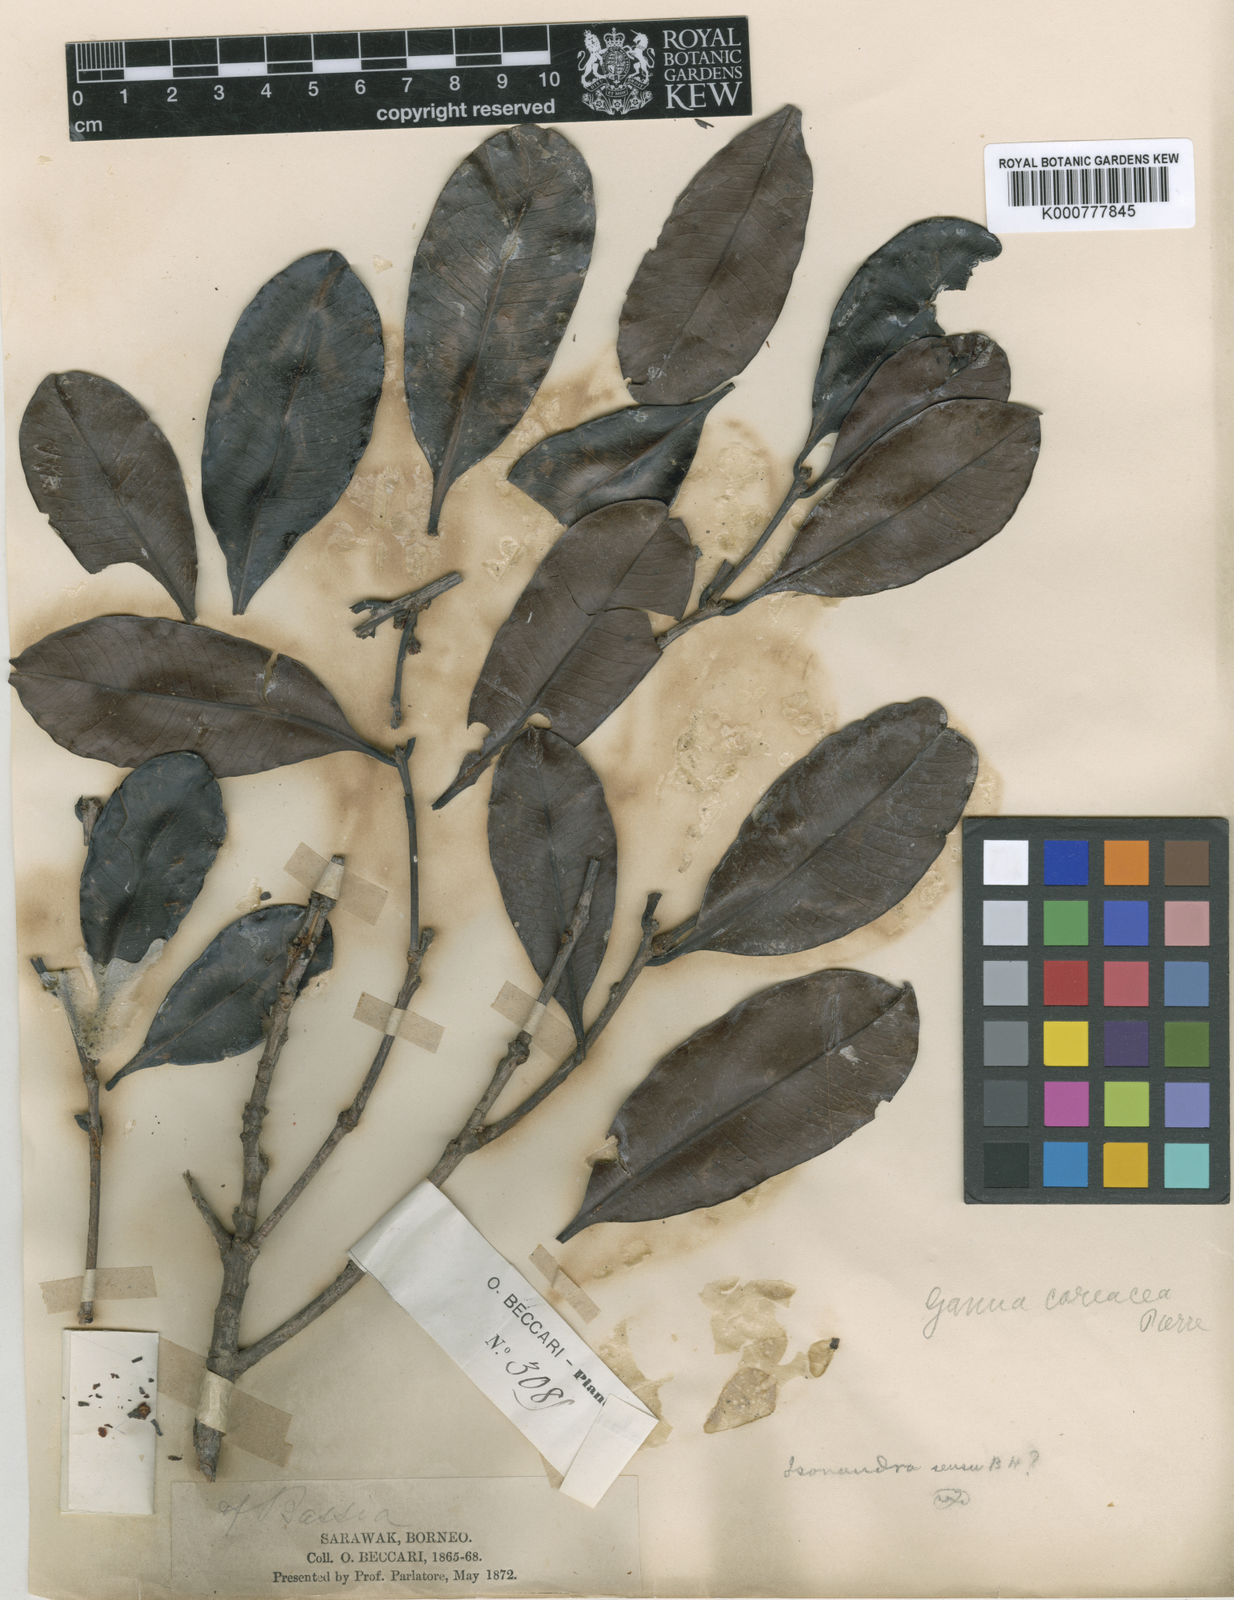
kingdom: Plantae
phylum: Tracheophyta
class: Magnoliopsida
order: Ericales
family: Sapotaceae
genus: Madhuca
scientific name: Madhuca coriacea
